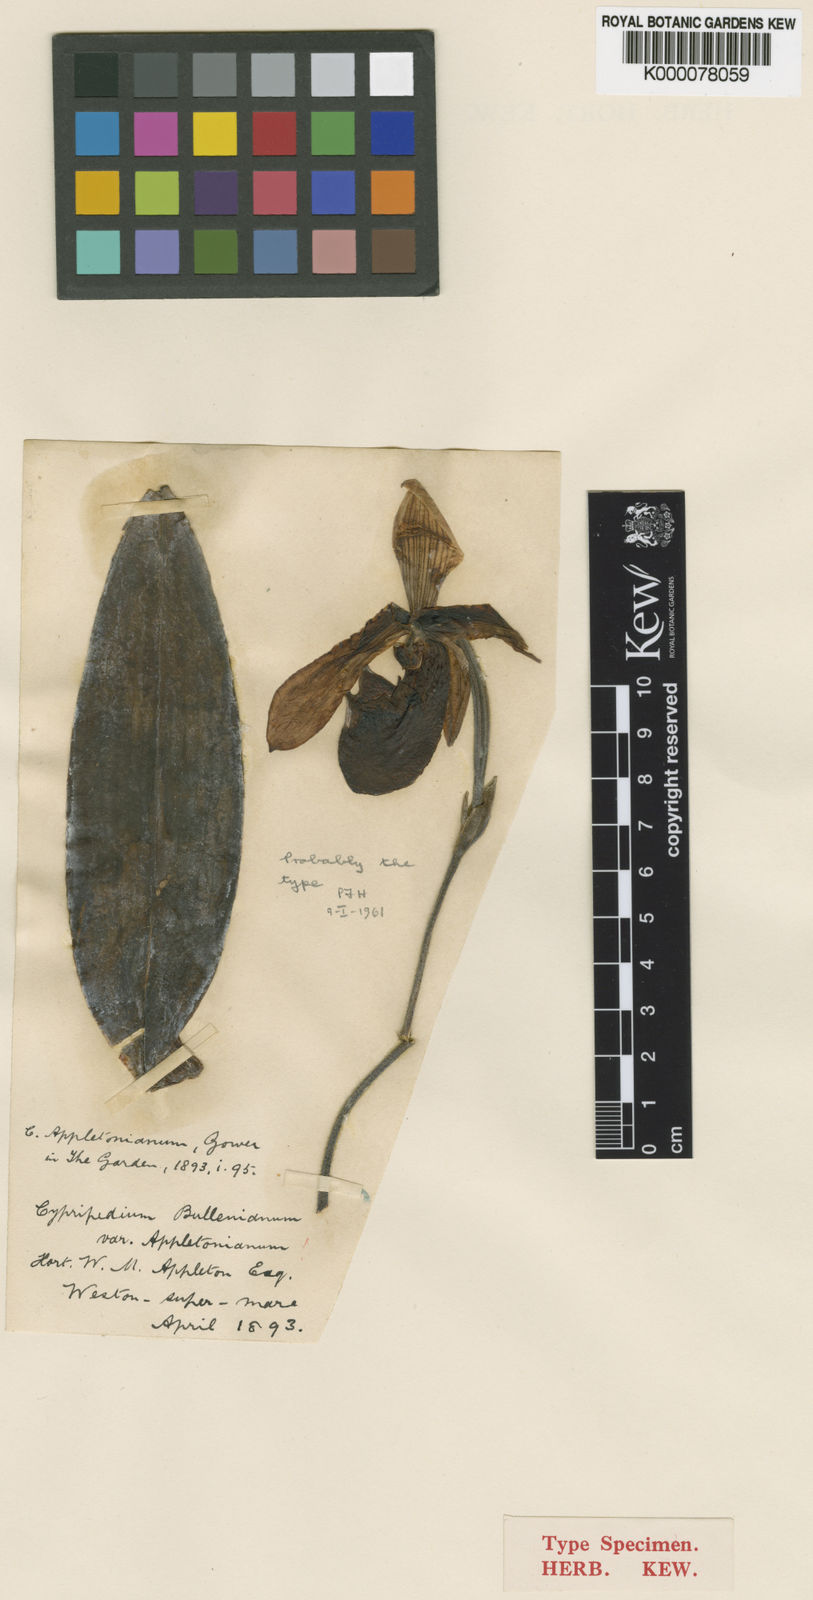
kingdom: Plantae
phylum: Tracheophyta
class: Liliopsida
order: Asparagales
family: Orchidaceae
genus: Paphiopedilum
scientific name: Paphiopedilum
